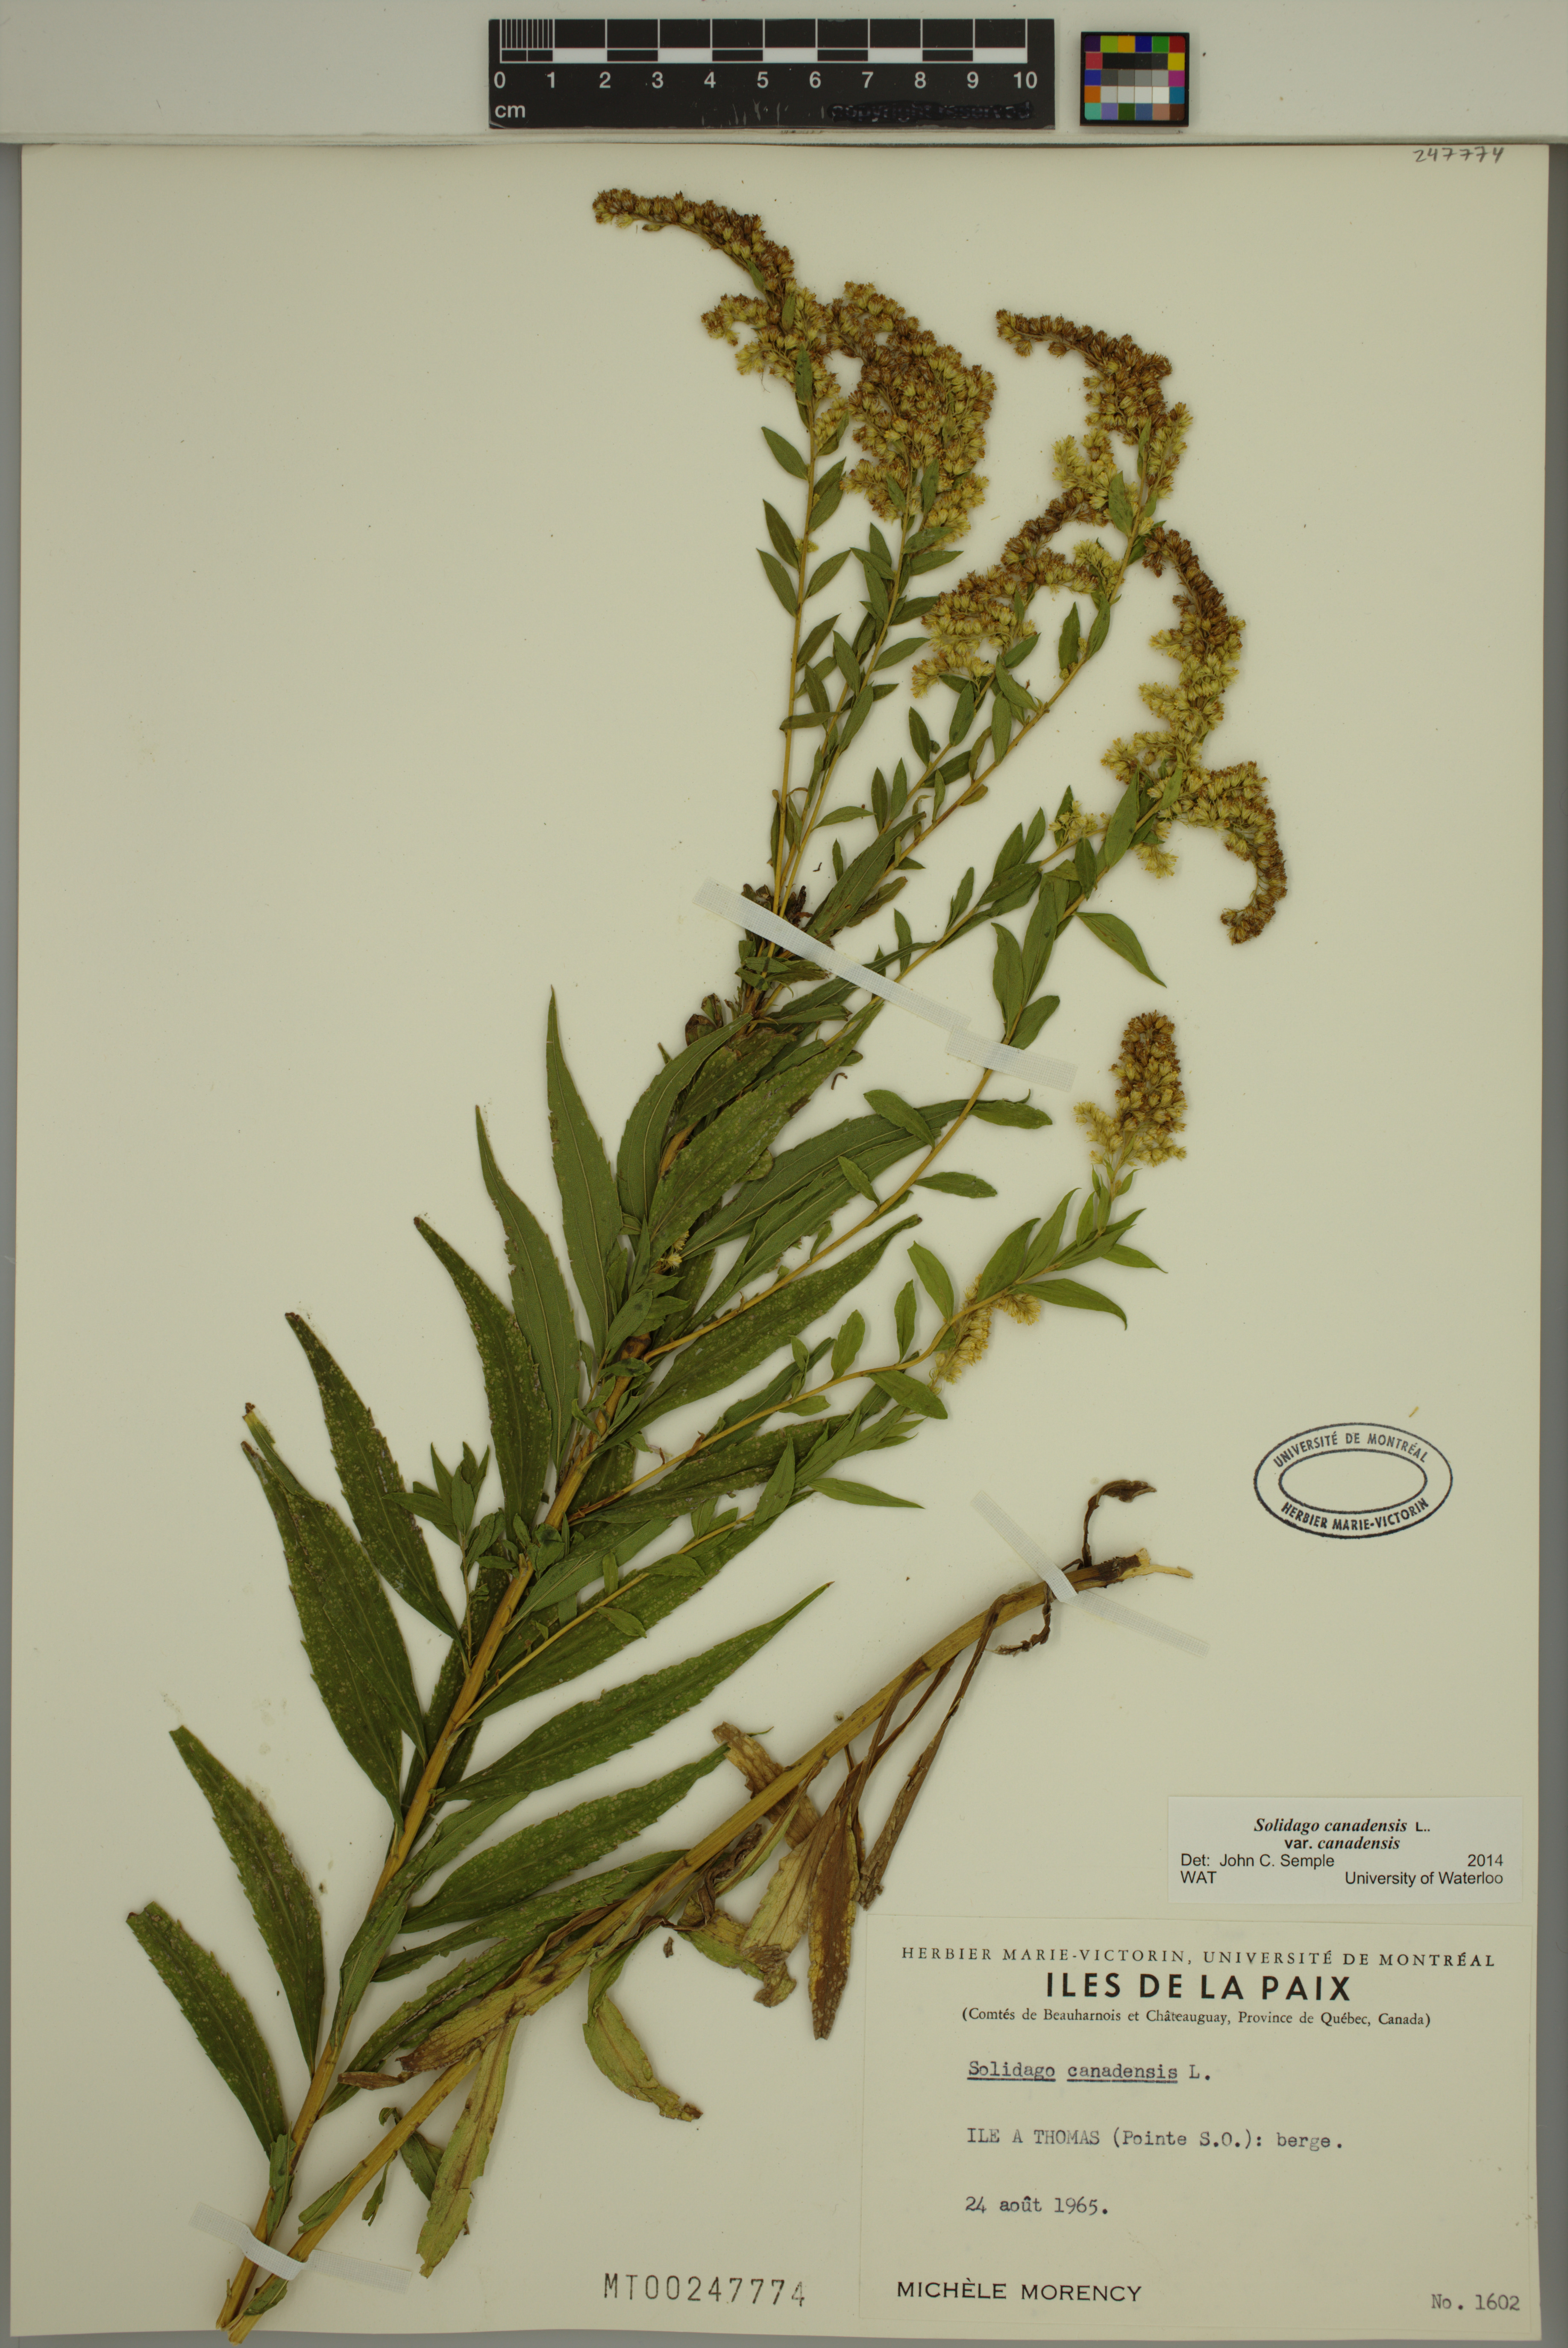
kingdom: Plantae
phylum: Tracheophyta
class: Magnoliopsida
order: Asterales
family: Asteraceae
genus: Solidago
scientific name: Solidago canadensis
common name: Canada goldenrod
